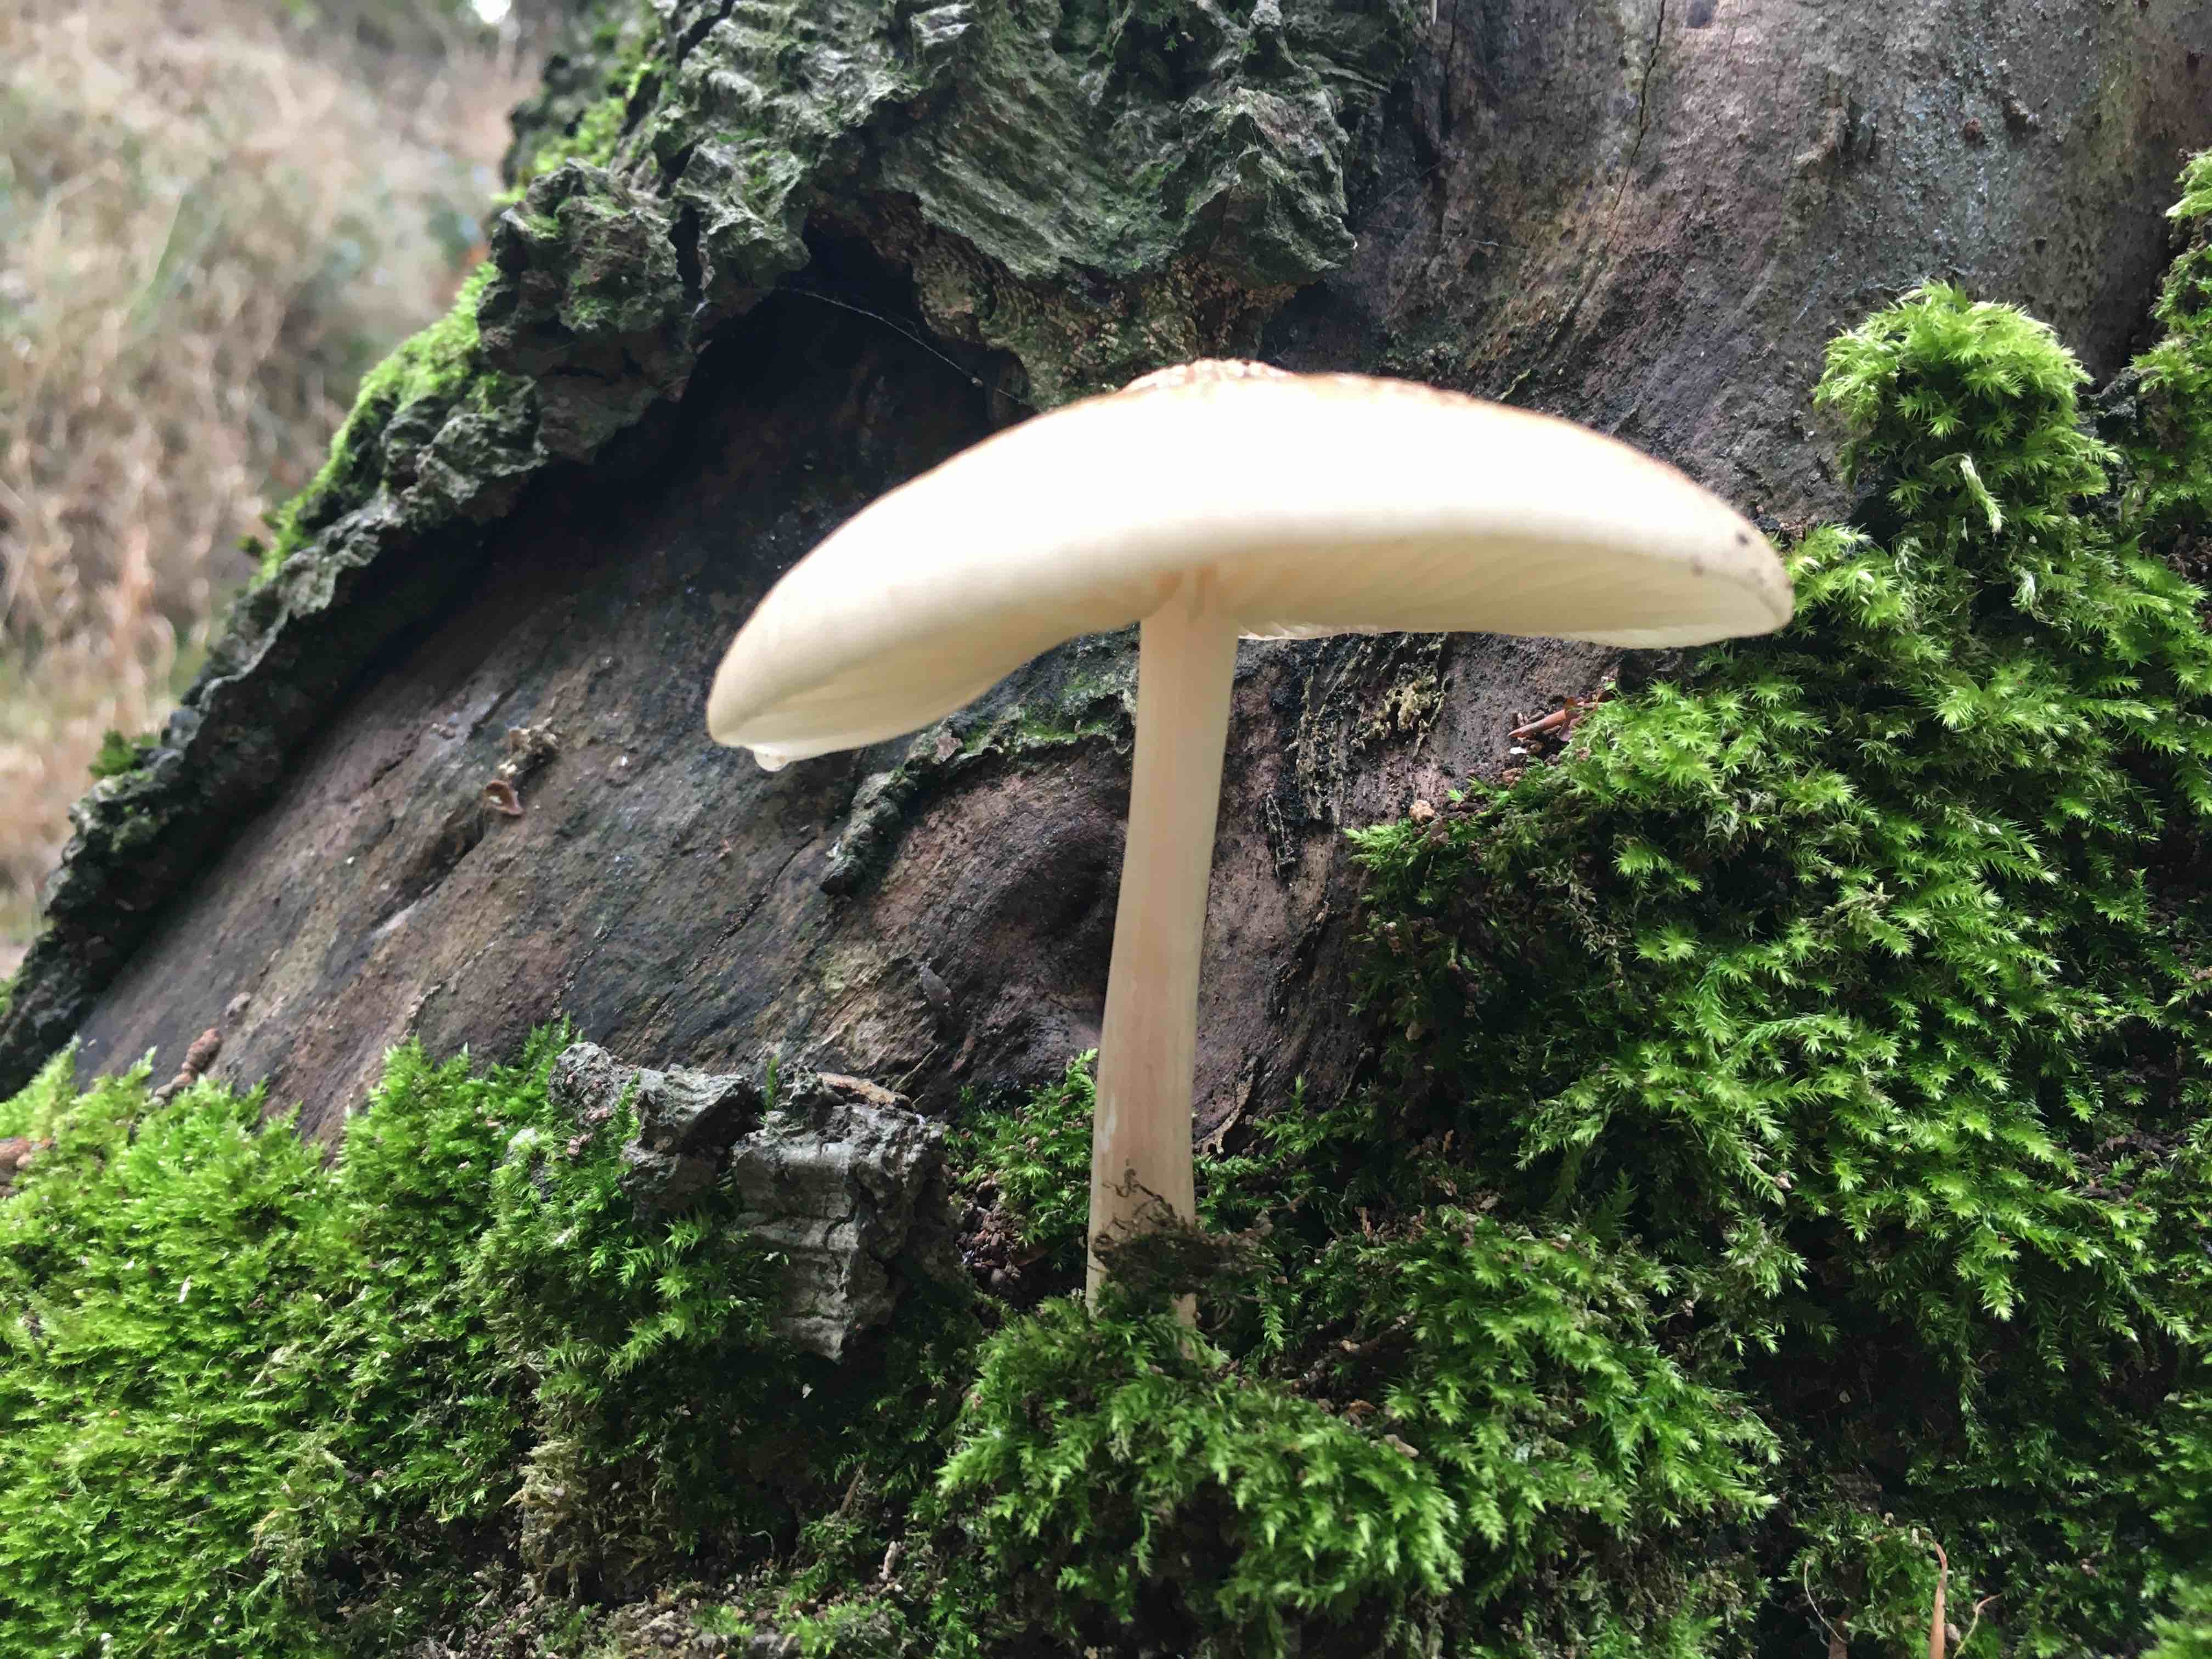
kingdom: Fungi
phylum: Basidiomycota
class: Agaricomycetes
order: Agaricales
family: Physalacriaceae
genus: Hymenopellis
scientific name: Hymenopellis radicata
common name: almindelig pælerodshat
